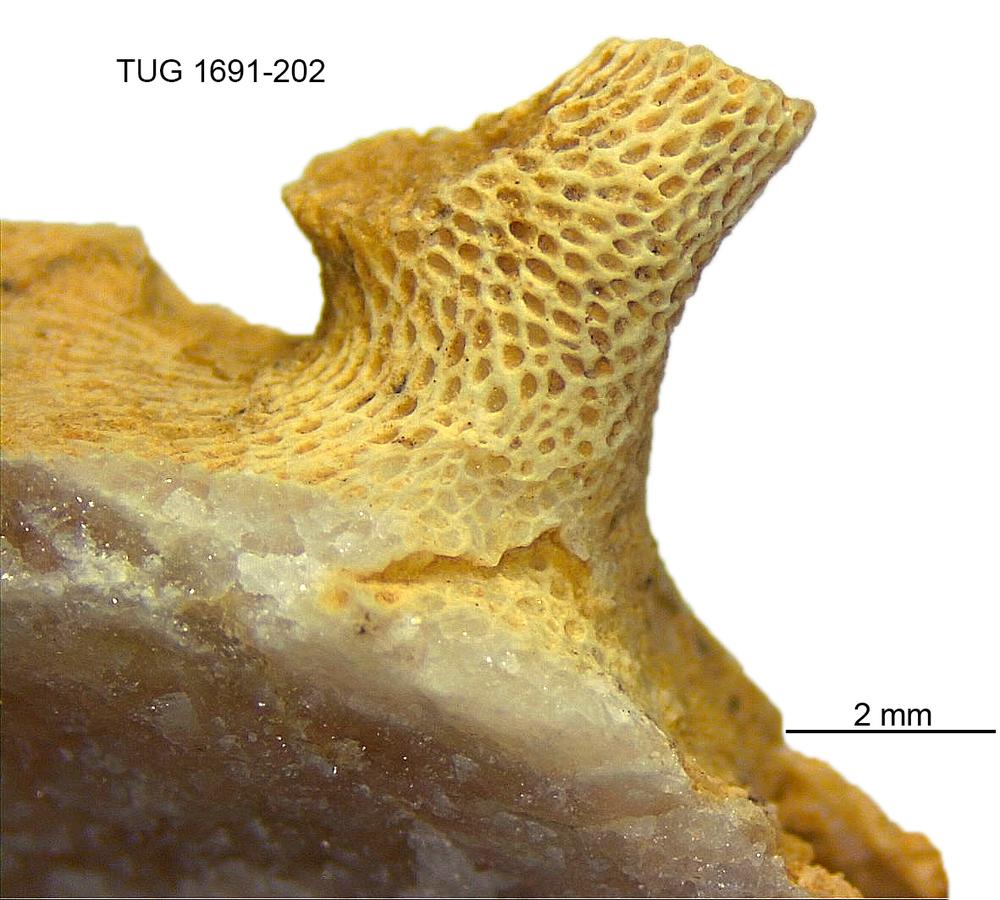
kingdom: Animalia
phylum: Bryozoa
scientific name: Bryozoa
